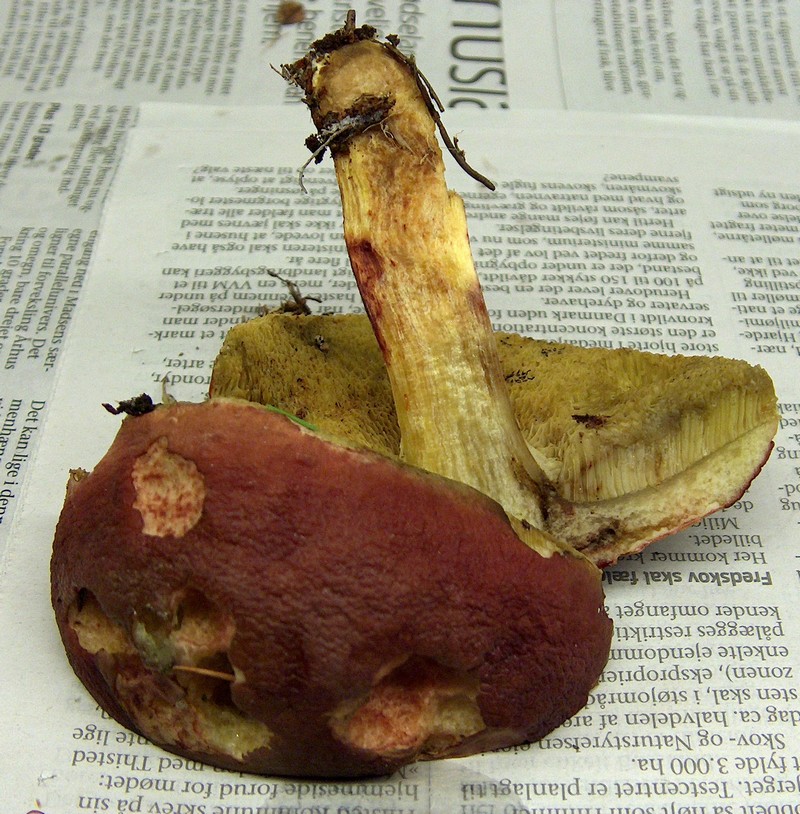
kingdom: Fungi
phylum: Basidiomycota
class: Agaricomycetes
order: Boletales
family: Boletaceae
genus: Xerocomellus
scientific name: Xerocomellus pruinatus
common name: dugget rørhat
